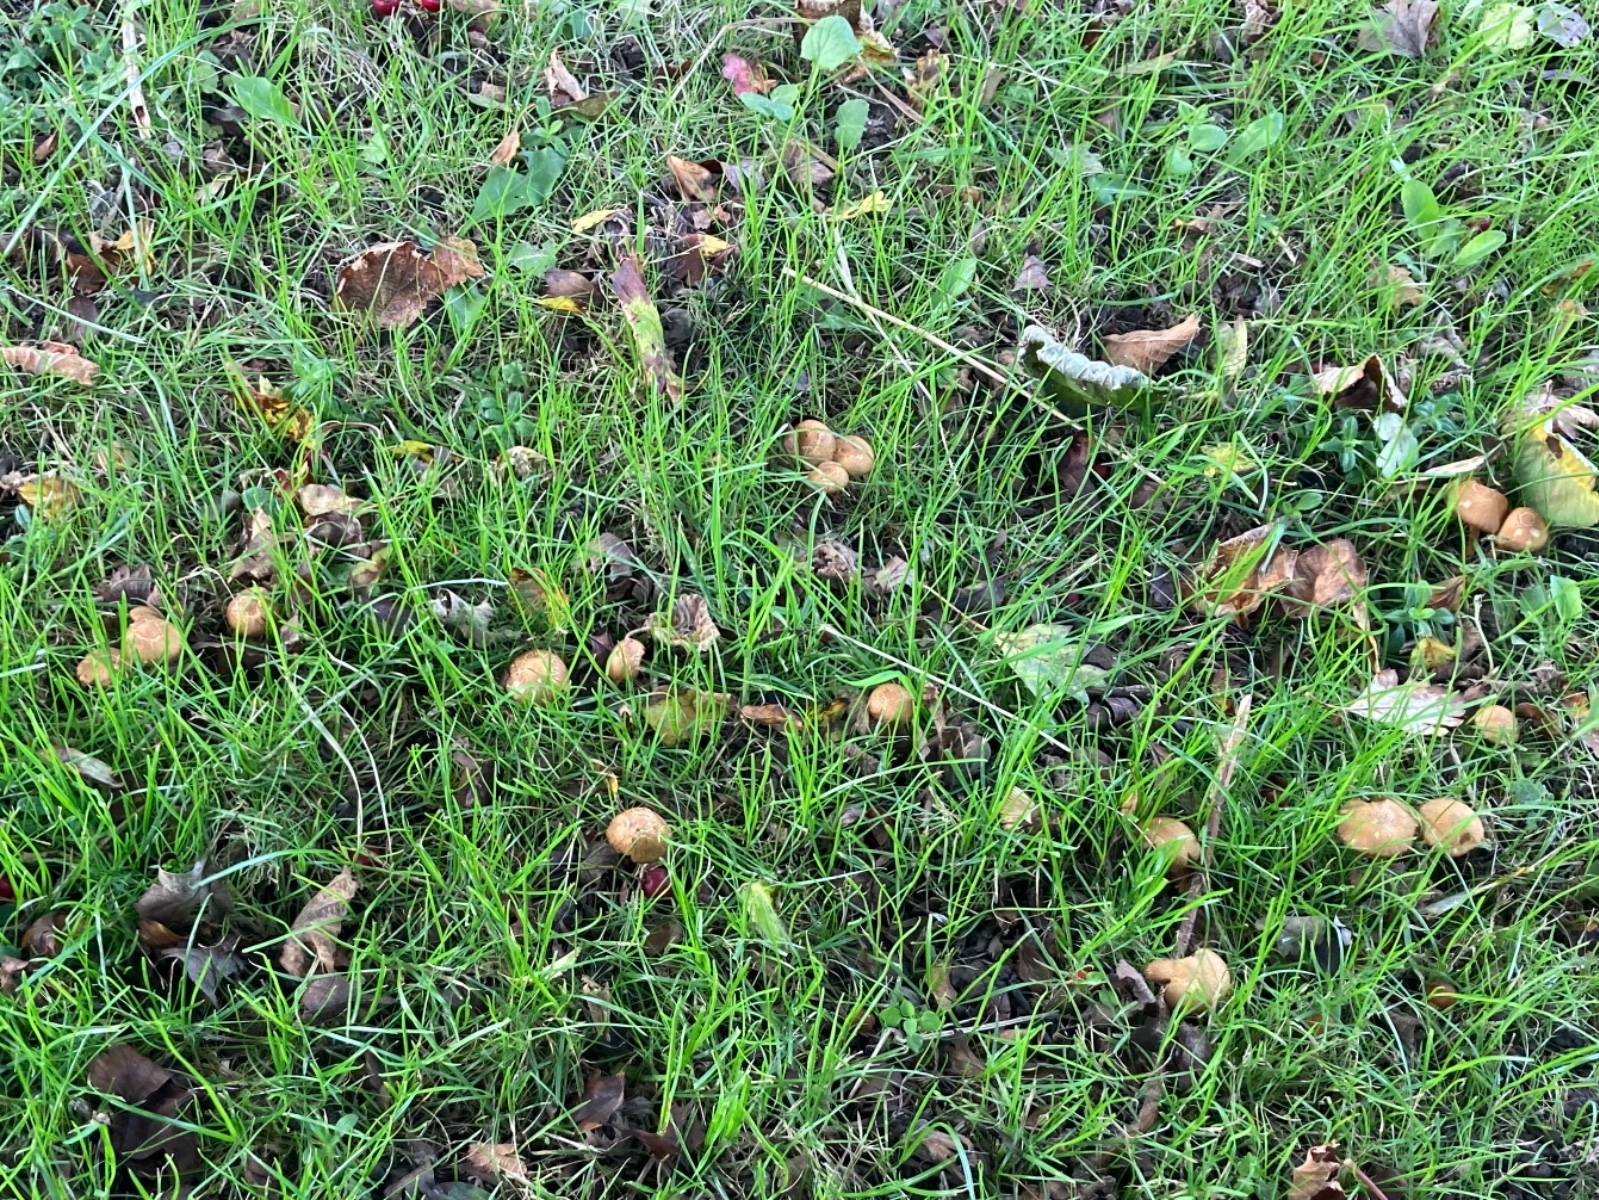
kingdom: Fungi
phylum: Basidiomycota
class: Agaricomycetes
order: Agaricales
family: Inocybaceae
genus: Inocybe
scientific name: Inocybe
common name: trævlhat
